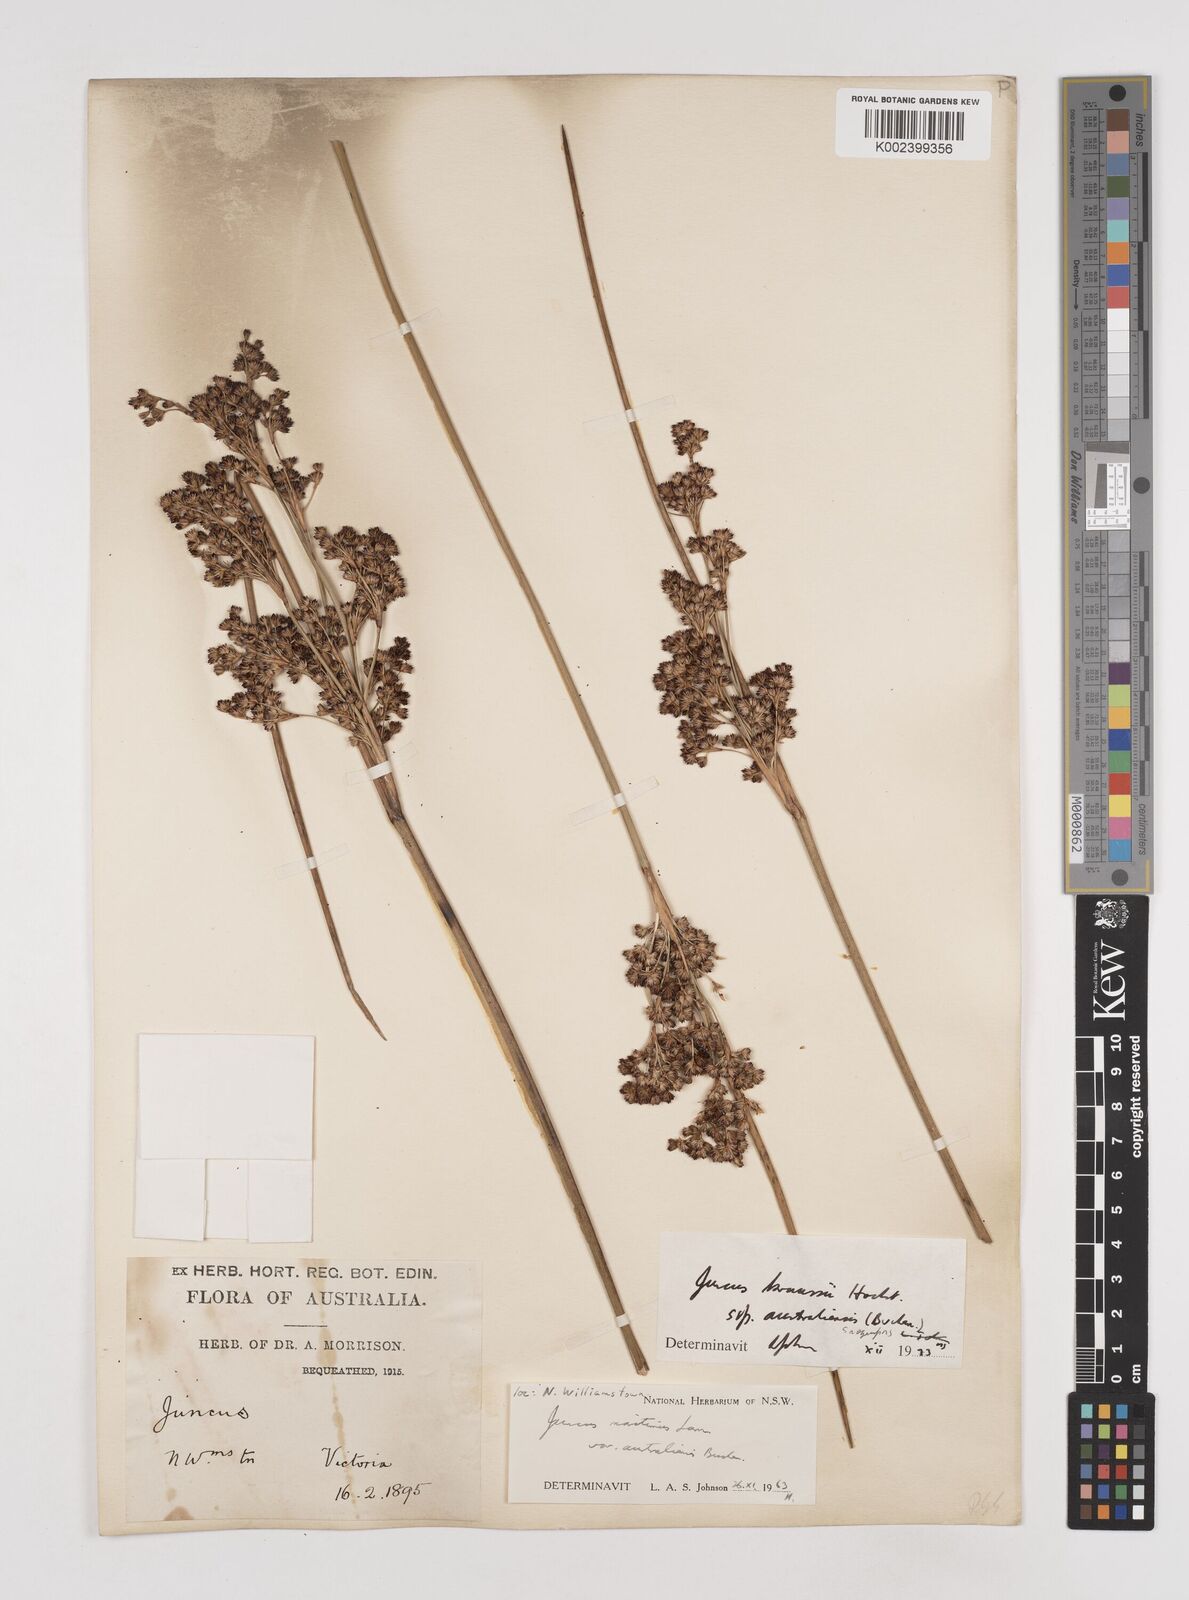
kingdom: Plantae
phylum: Tracheophyta
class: Liliopsida
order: Poales
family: Juncaceae
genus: Juncus
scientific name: Juncus kraussii
